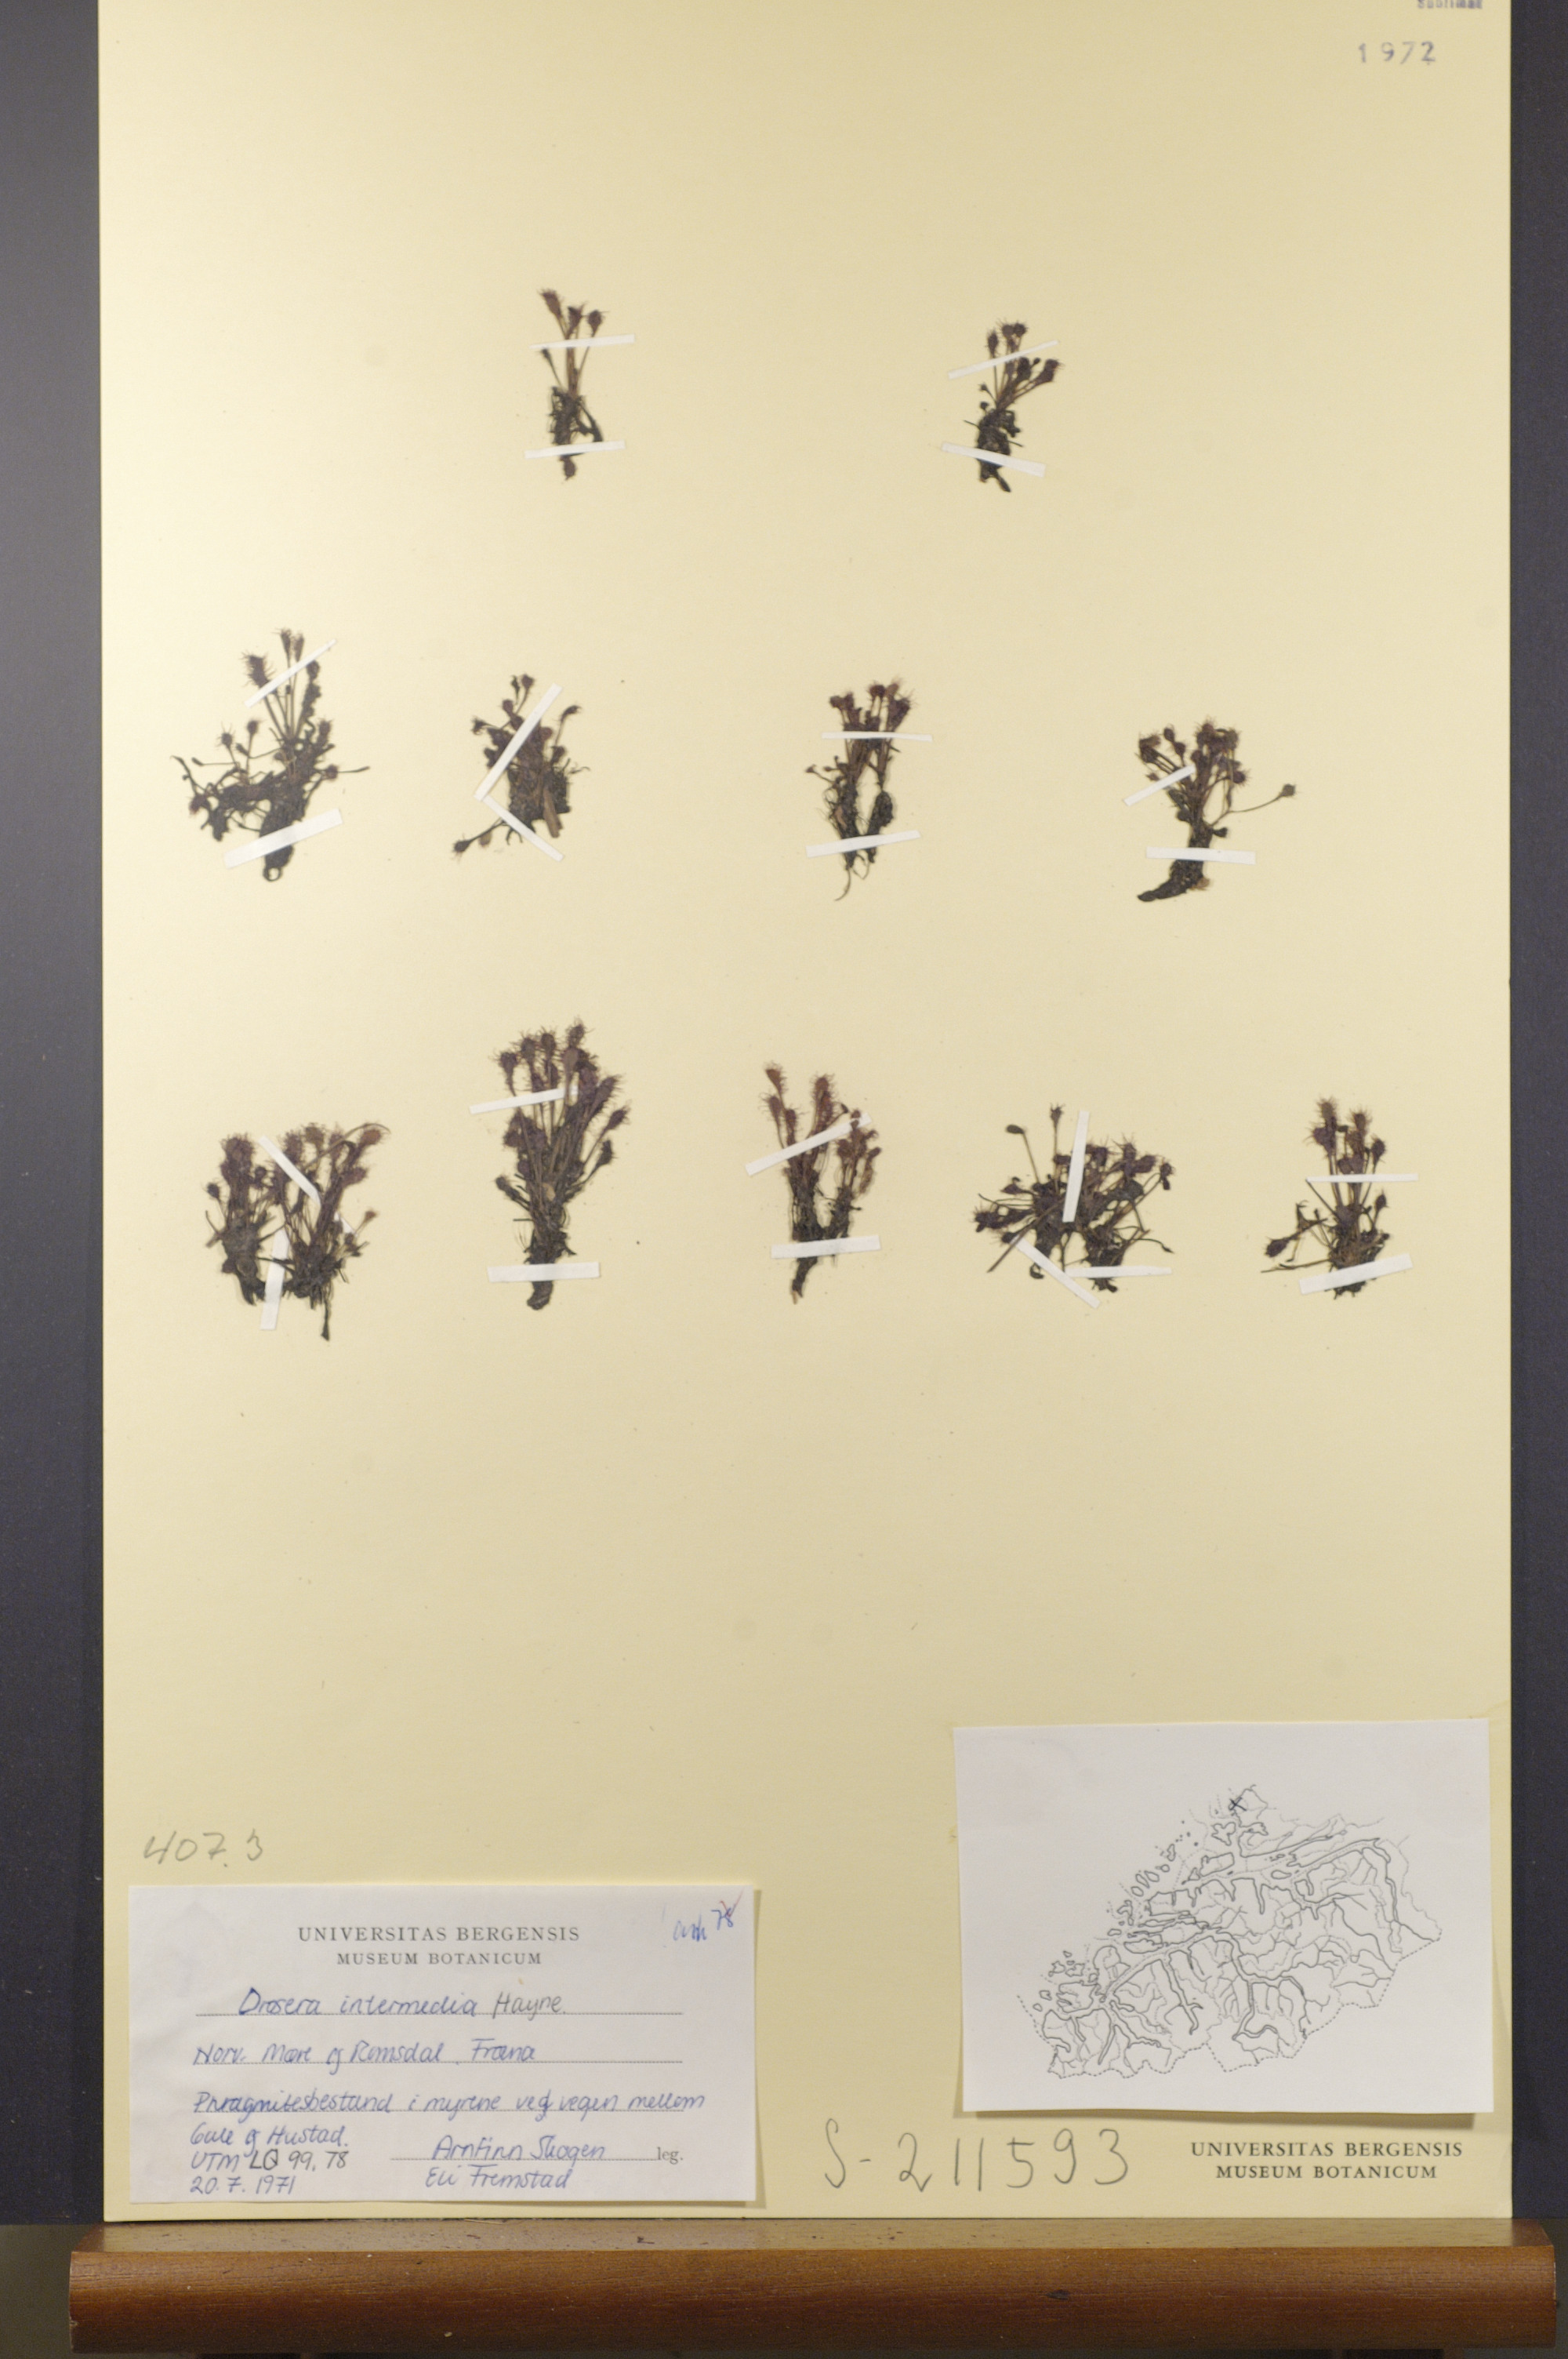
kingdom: Plantae
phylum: Tracheophyta
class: Magnoliopsida
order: Caryophyllales
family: Droseraceae
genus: Drosera
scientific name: Drosera intermedia
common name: Oblong-leaved sundew
